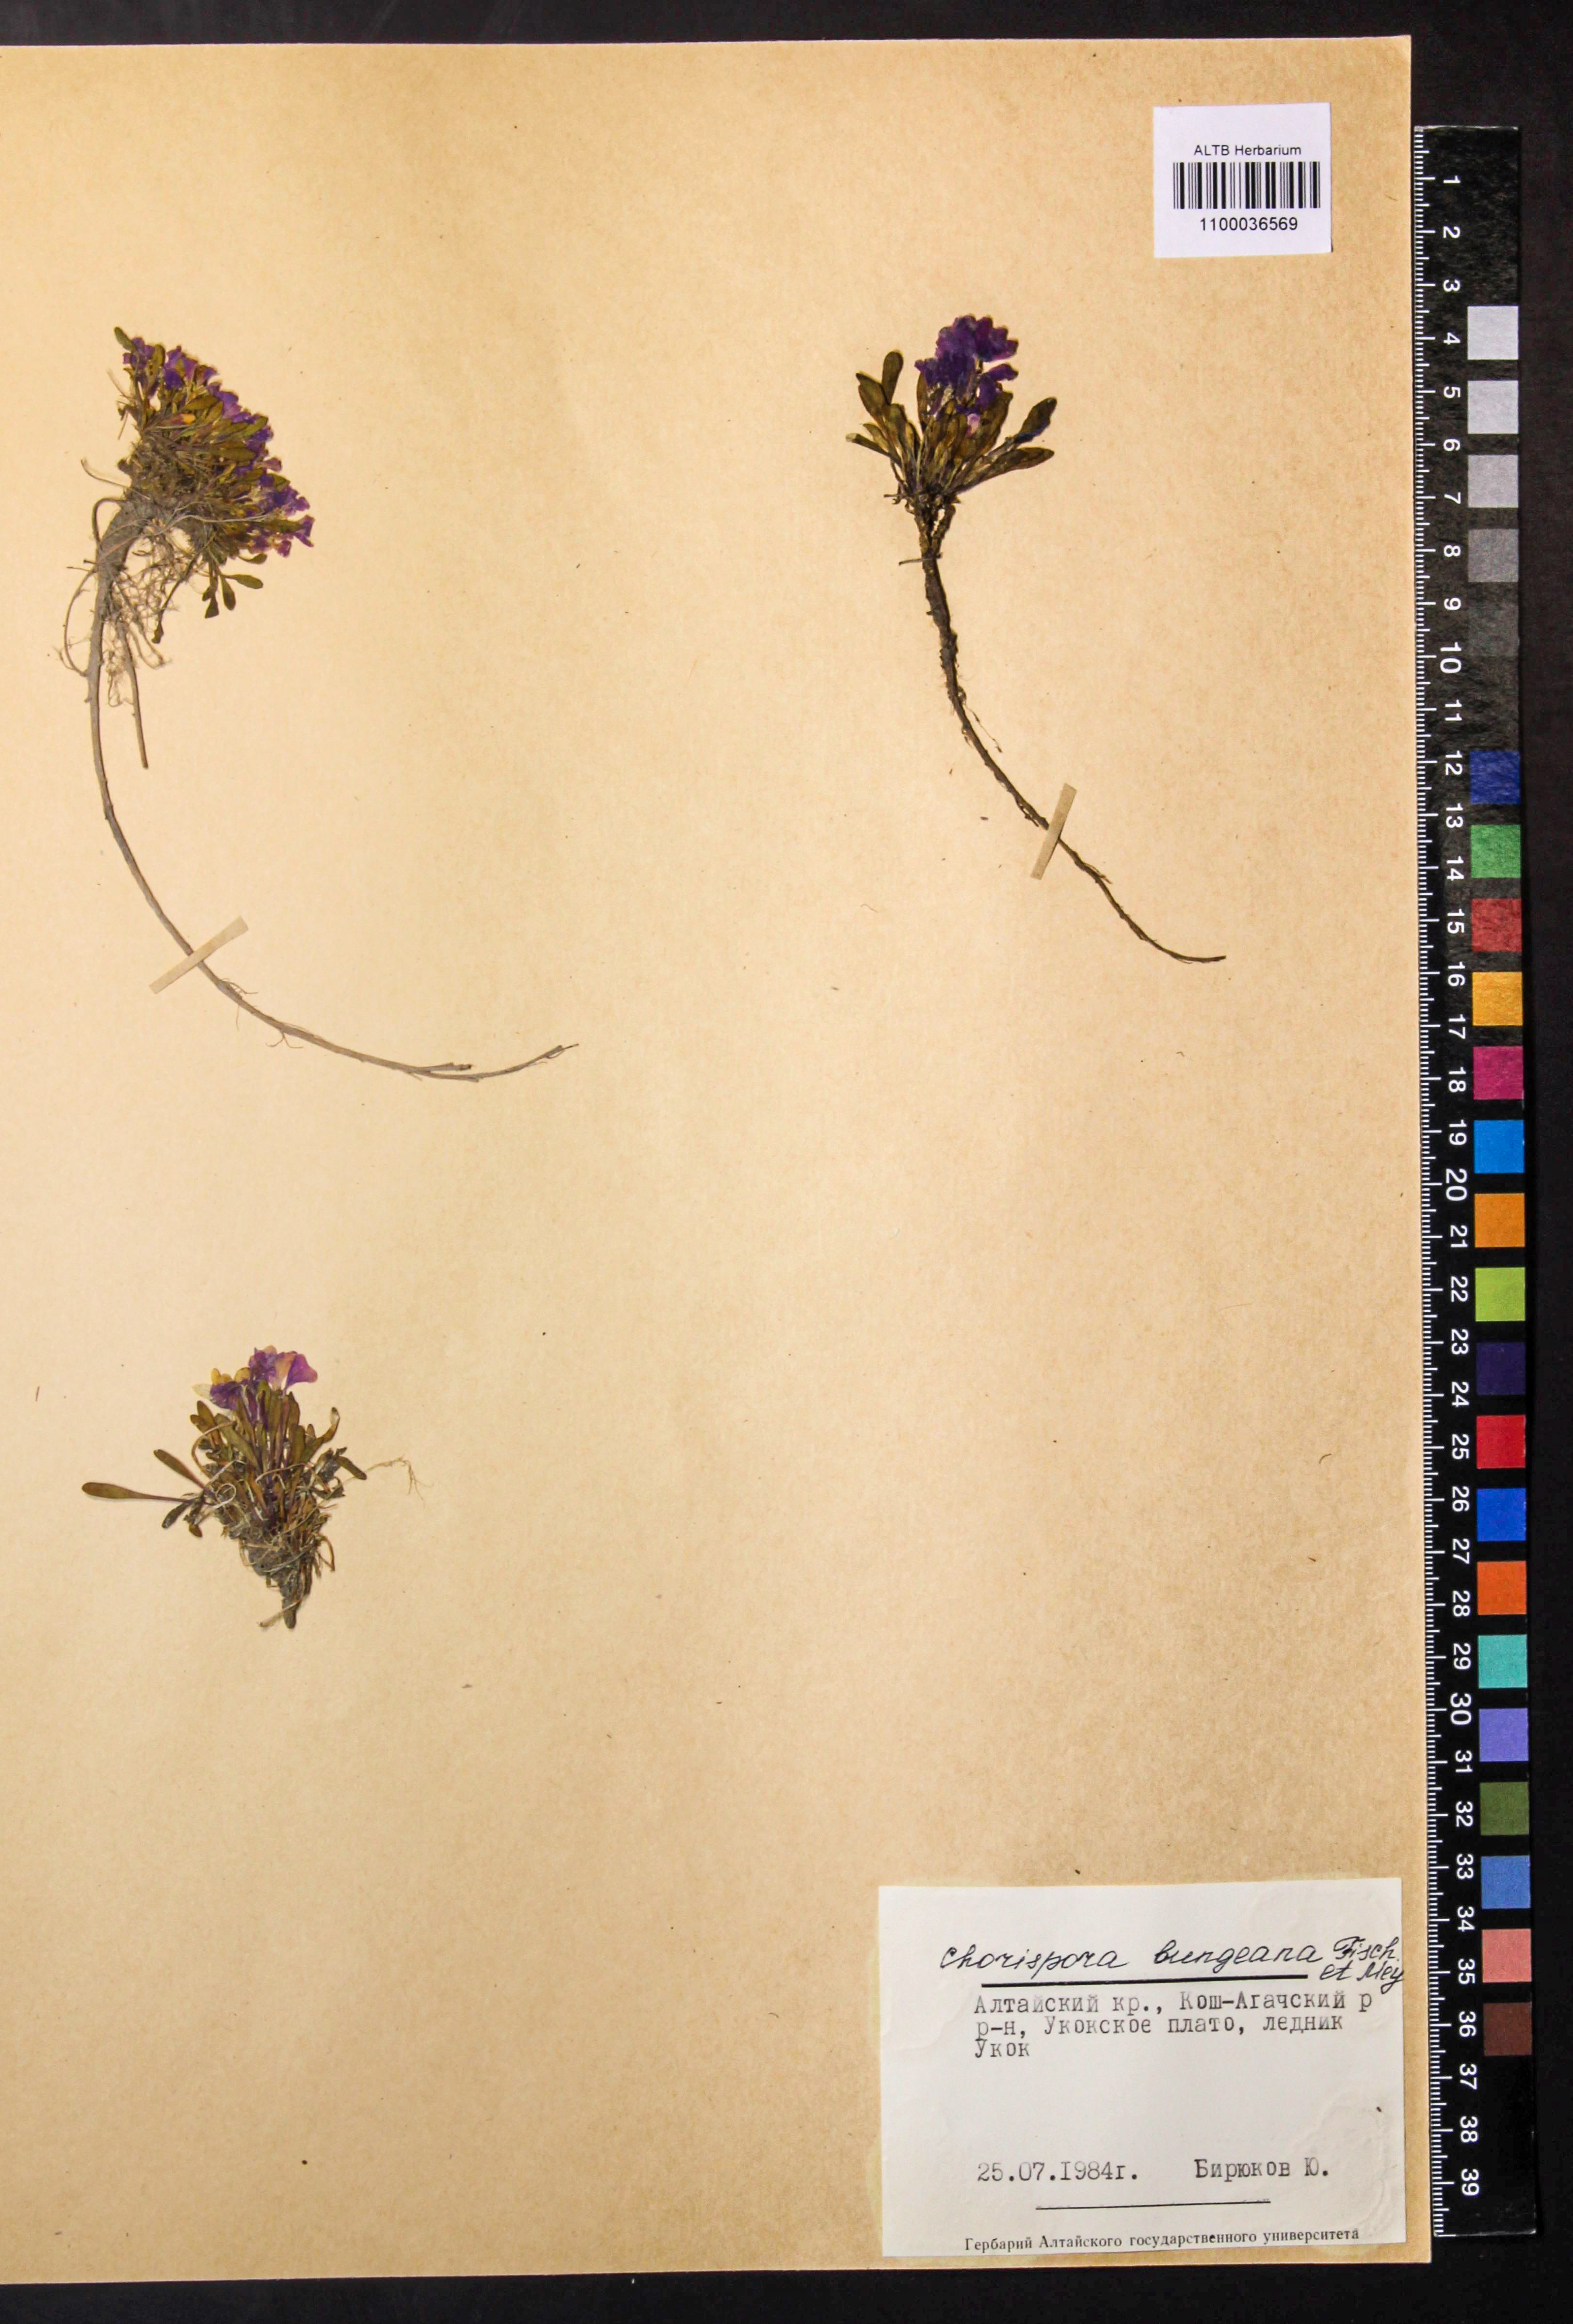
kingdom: Plantae
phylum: Tracheophyta
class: Magnoliopsida
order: Brassicales
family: Brassicaceae
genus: Chorispora
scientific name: Chorispora bungeana
